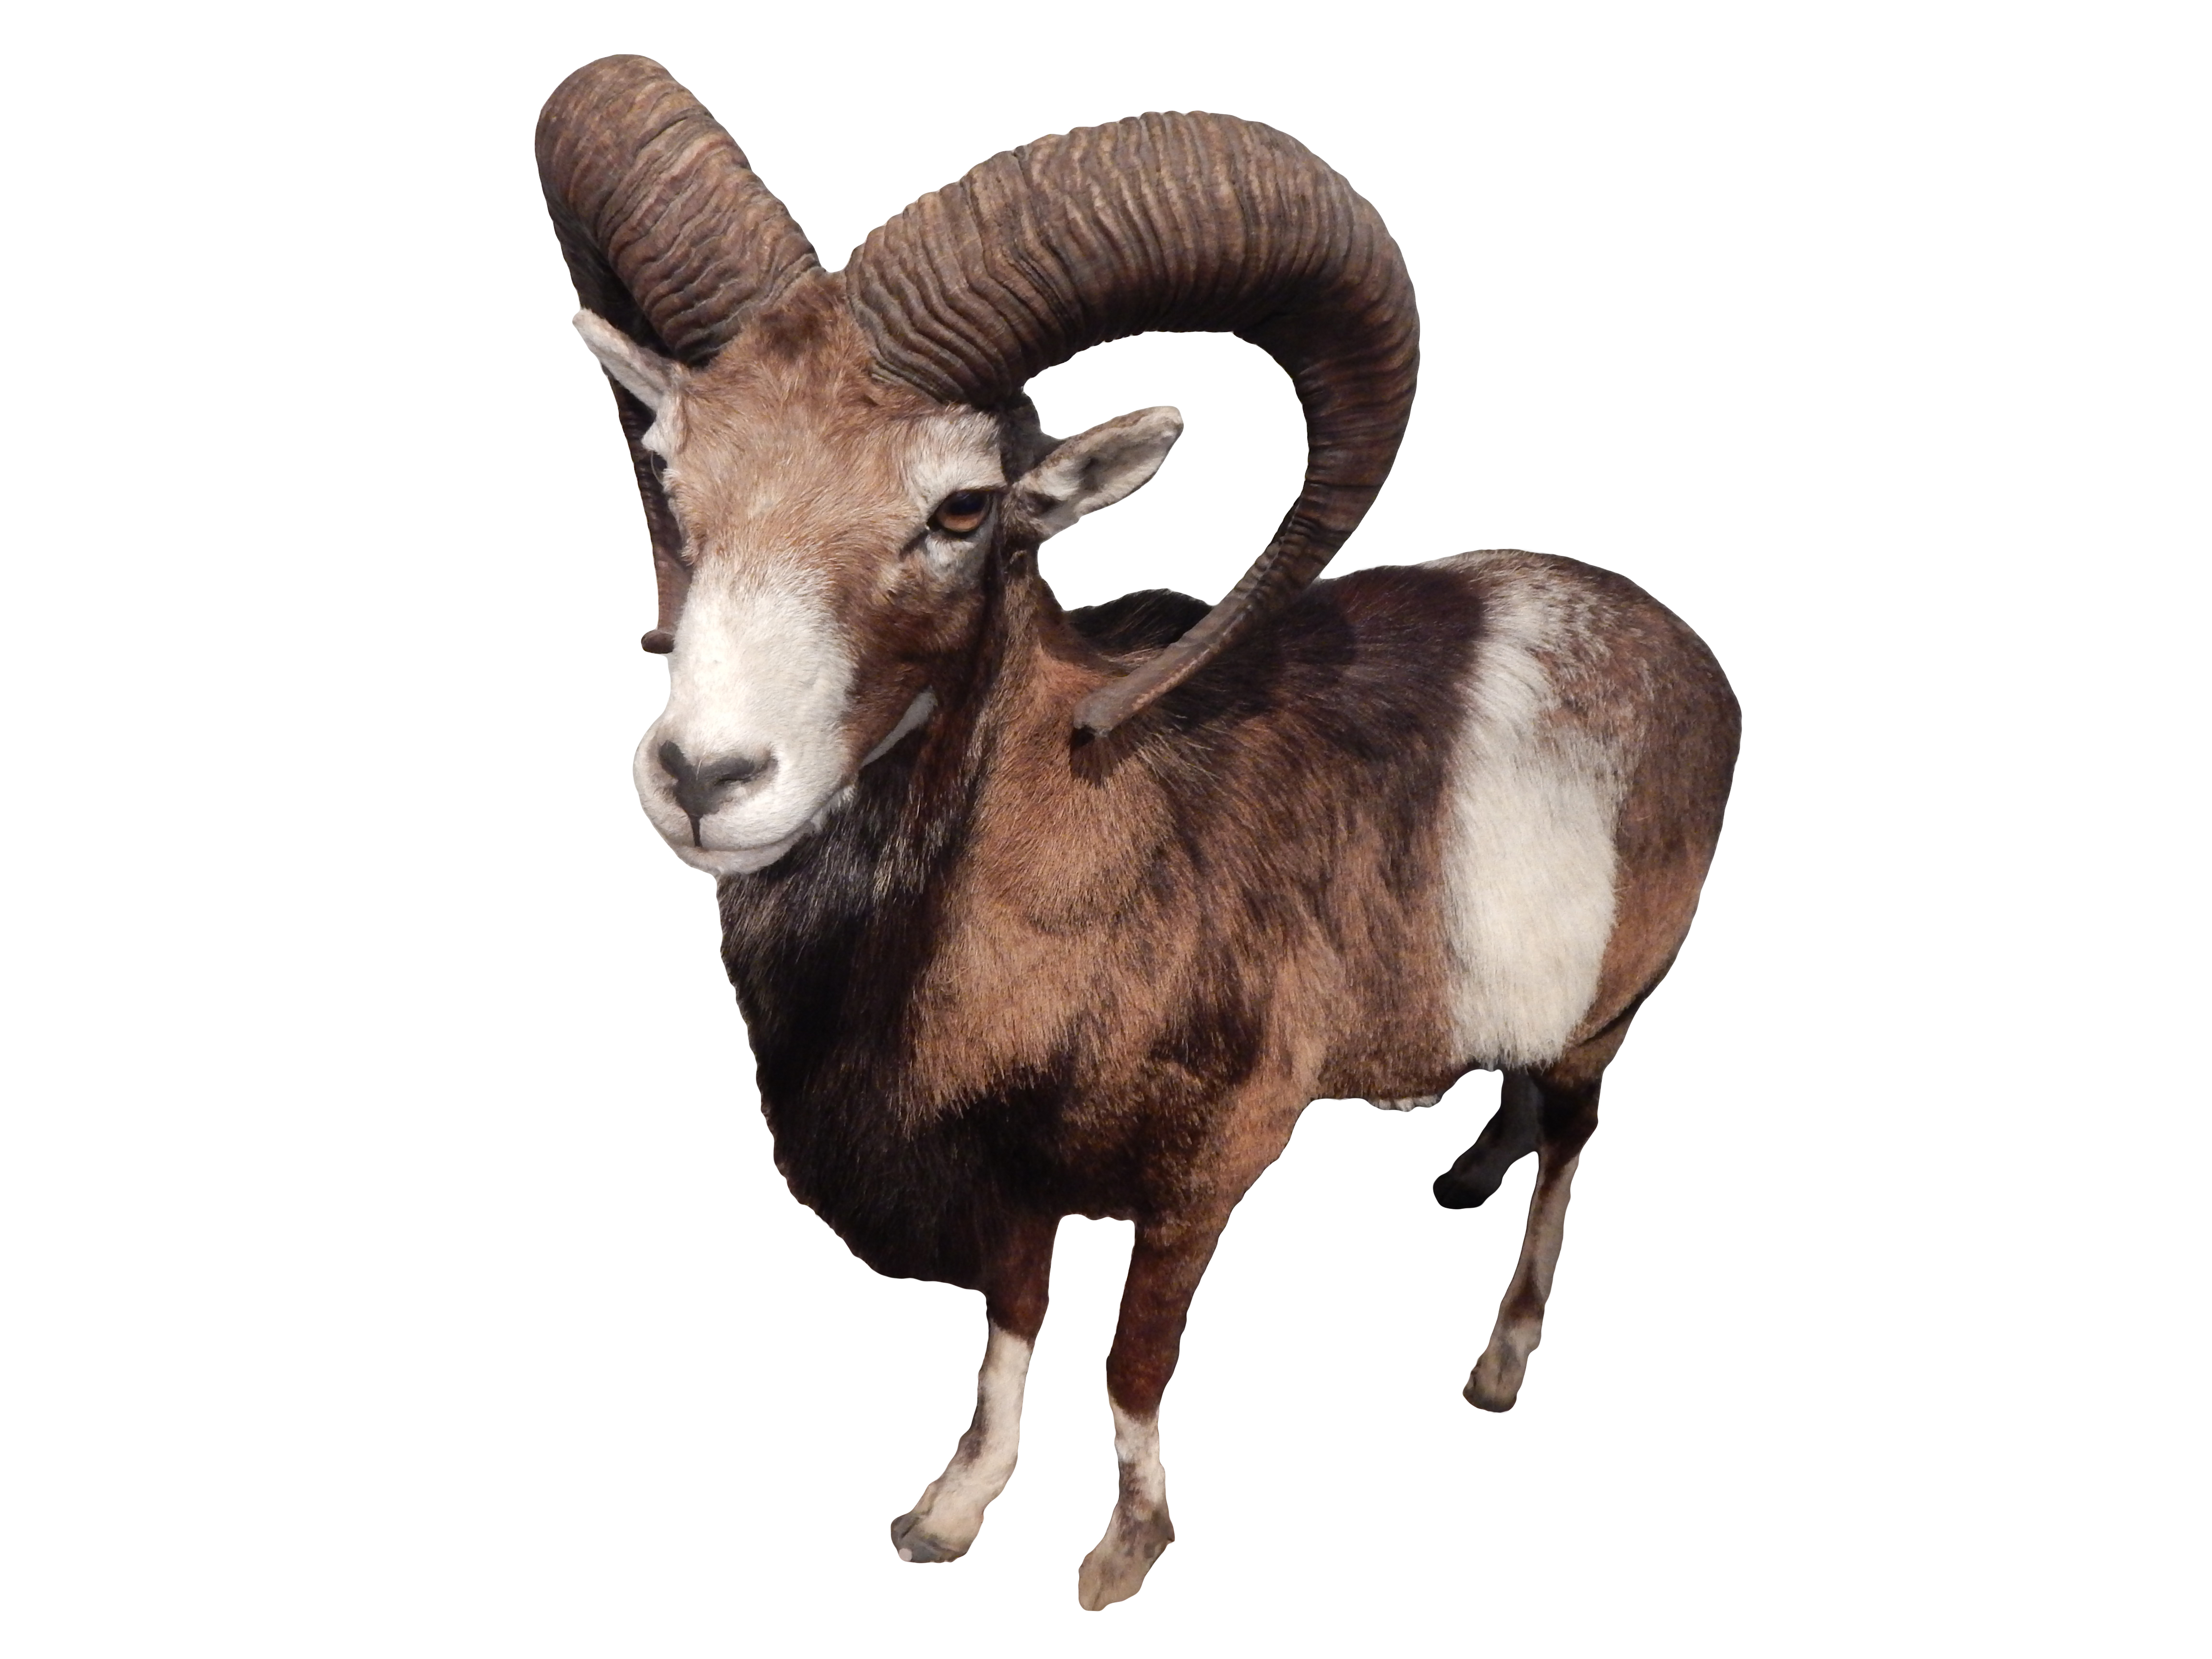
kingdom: Animalia
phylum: Chordata
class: Mammalia
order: Artiodactyla
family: Bovidae
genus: Ovis
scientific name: Ovis aries
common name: Domestic sheep
